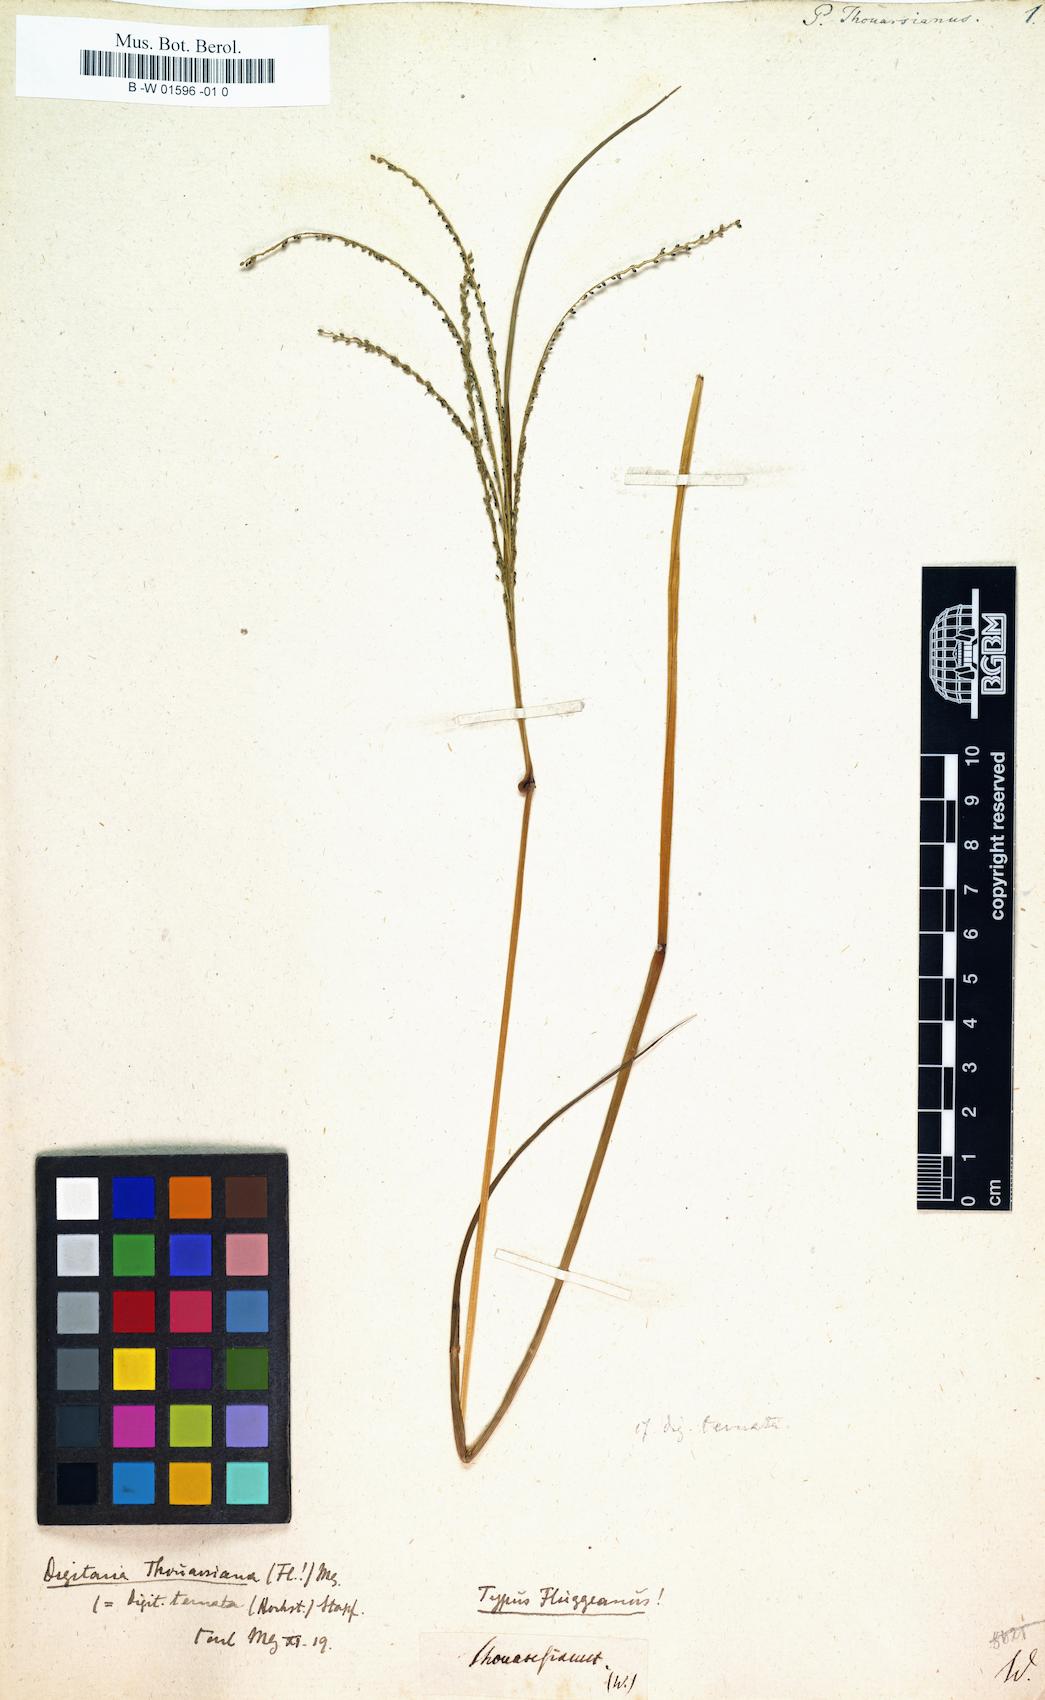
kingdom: Plantae
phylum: Tracheophyta
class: Liliopsida
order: Poales
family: Poaceae
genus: Paspalus
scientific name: Paspalus
